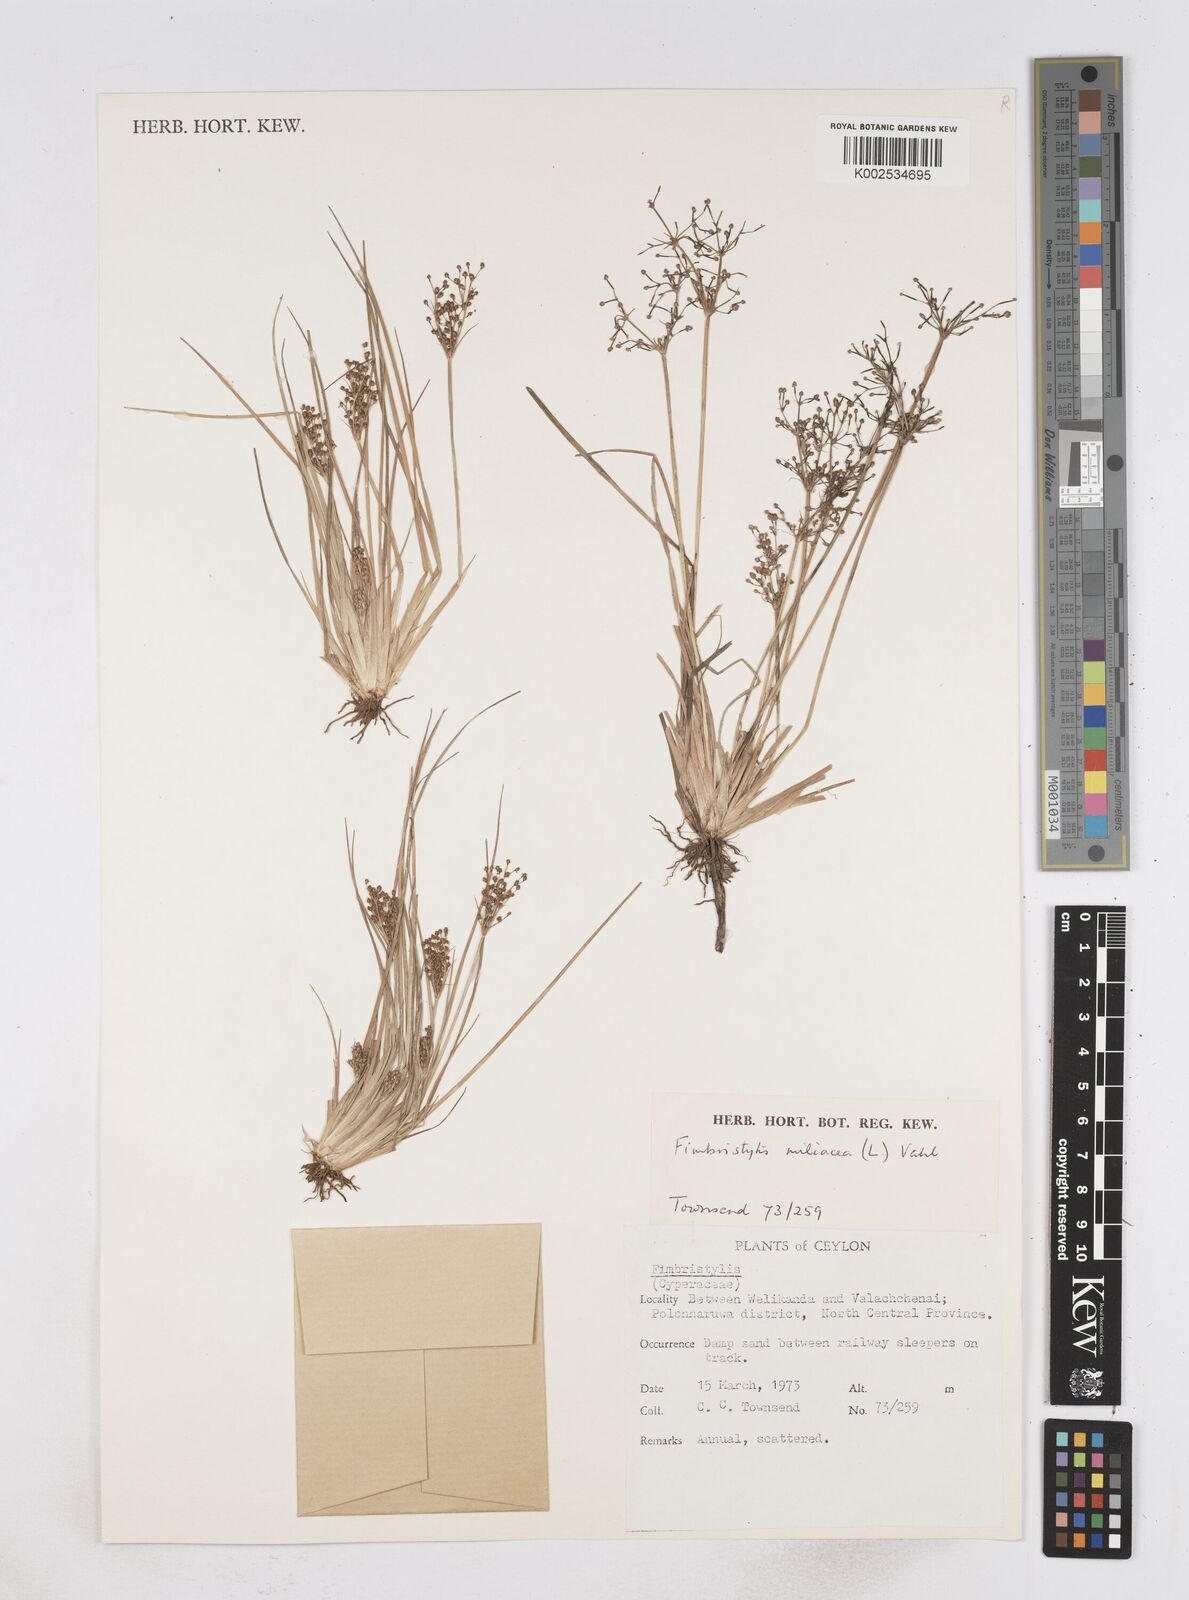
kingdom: Plantae
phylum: Tracheophyta
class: Liliopsida
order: Poales
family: Cyperaceae
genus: Fimbristylis
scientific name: Fimbristylis littoralis
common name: Fimbry
